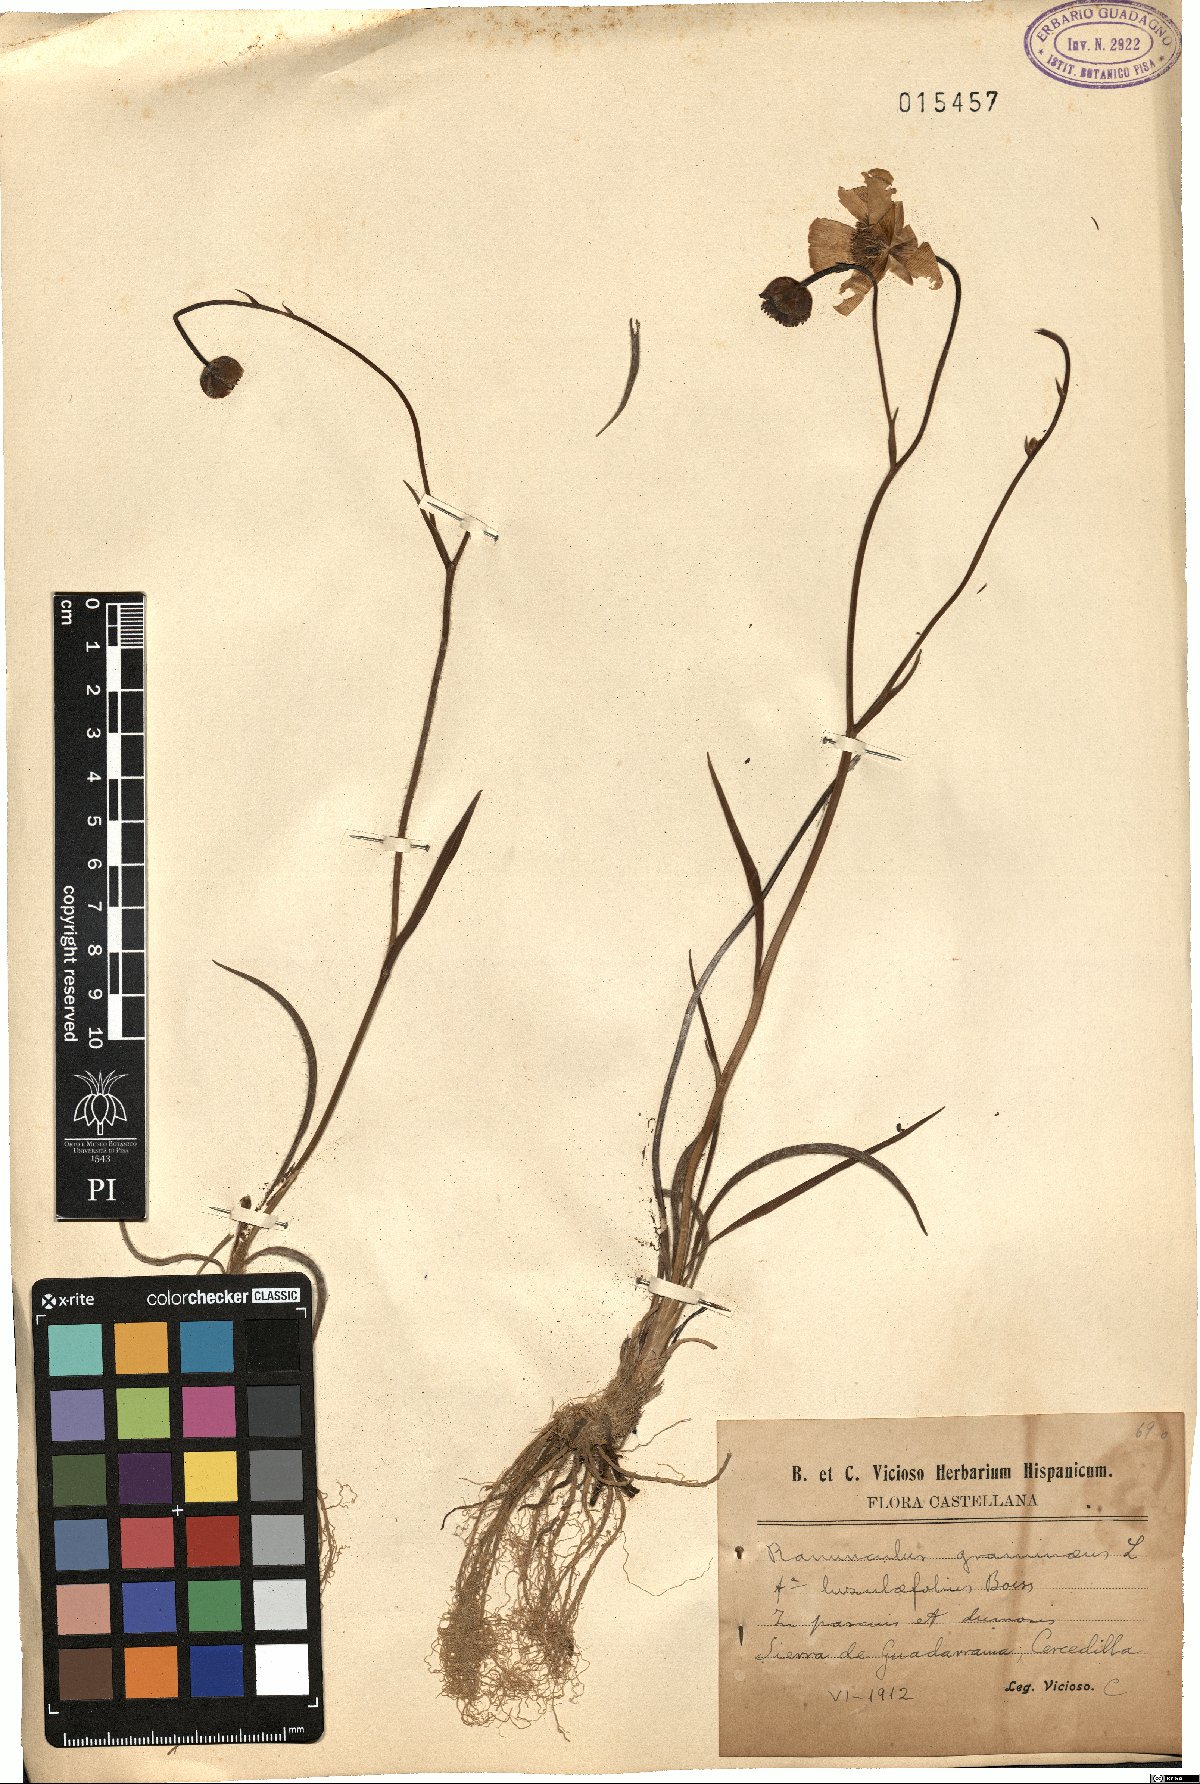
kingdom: Plantae
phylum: Tracheophyta
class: Magnoliopsida
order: Ranunculales
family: Ranunculaceae
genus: Ranunculus
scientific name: Ranunculus gramineus
